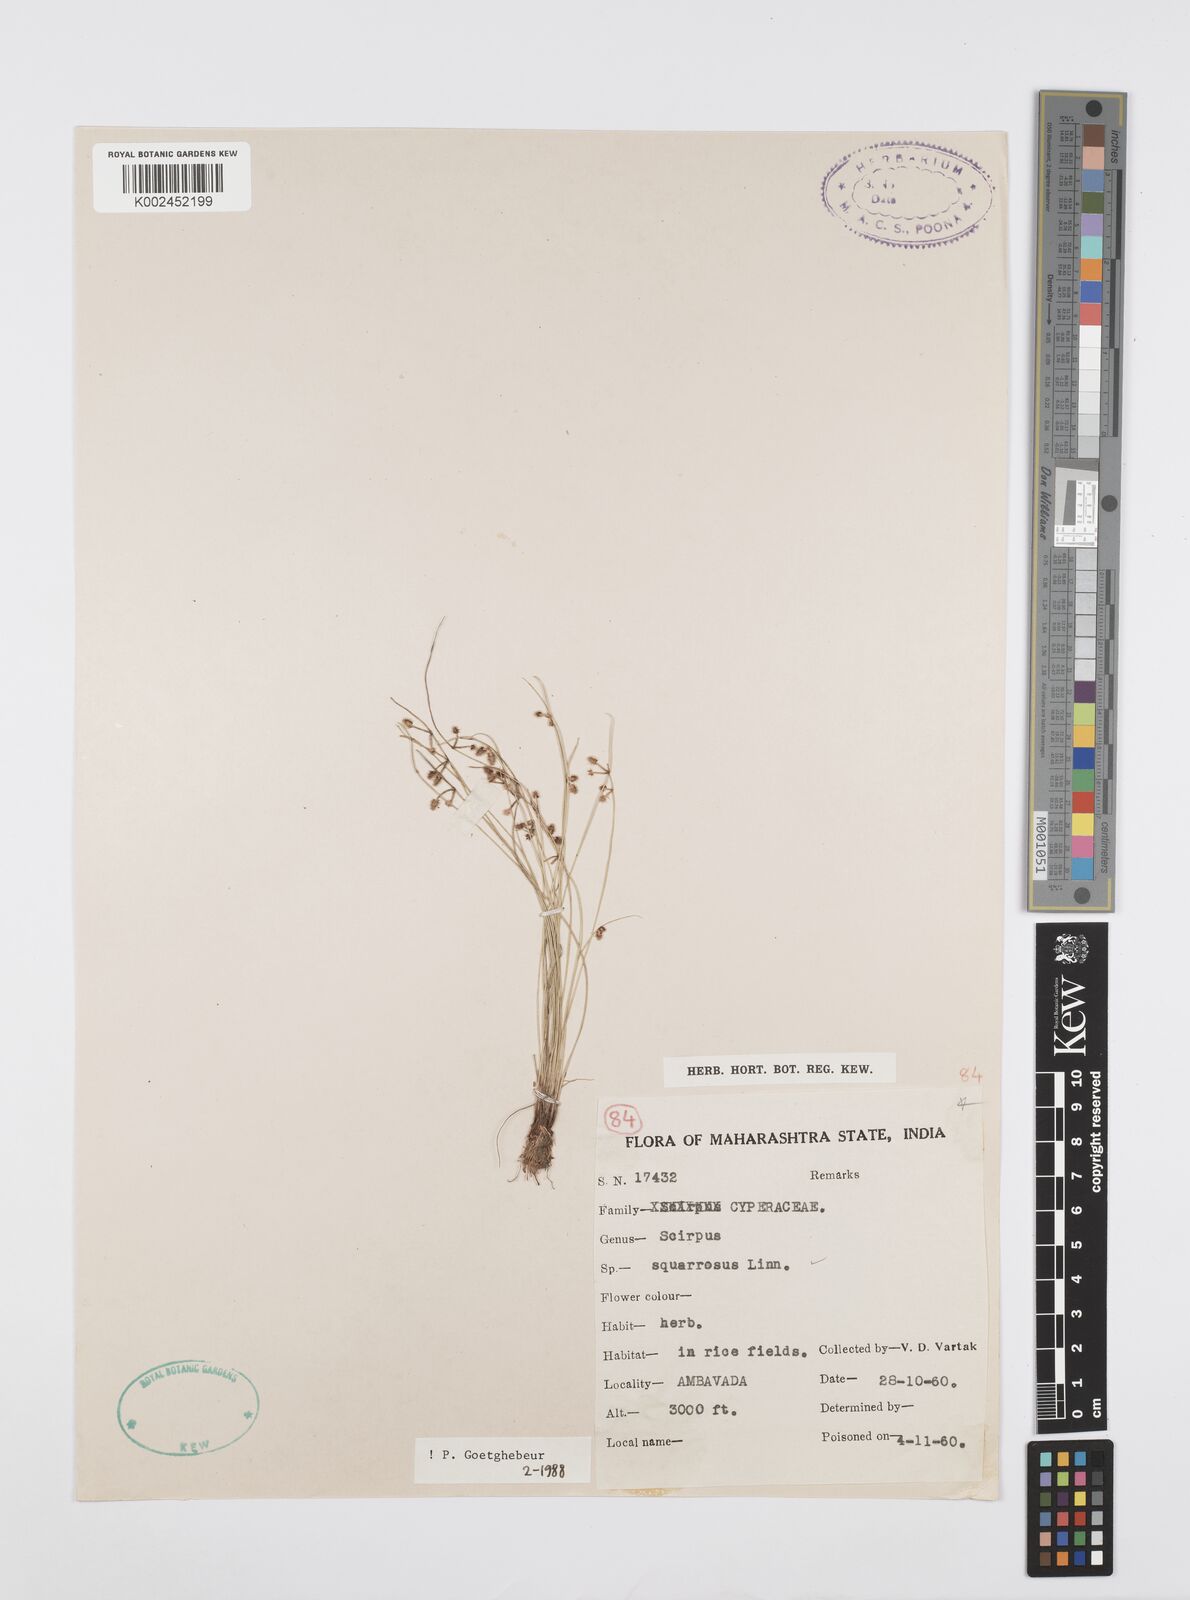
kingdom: Plantae
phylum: Tracheophyta
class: Liliopsida
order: Poales
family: Cyperaceae
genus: Cyperus
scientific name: Cyperus squarrosus
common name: Awned cyperus
